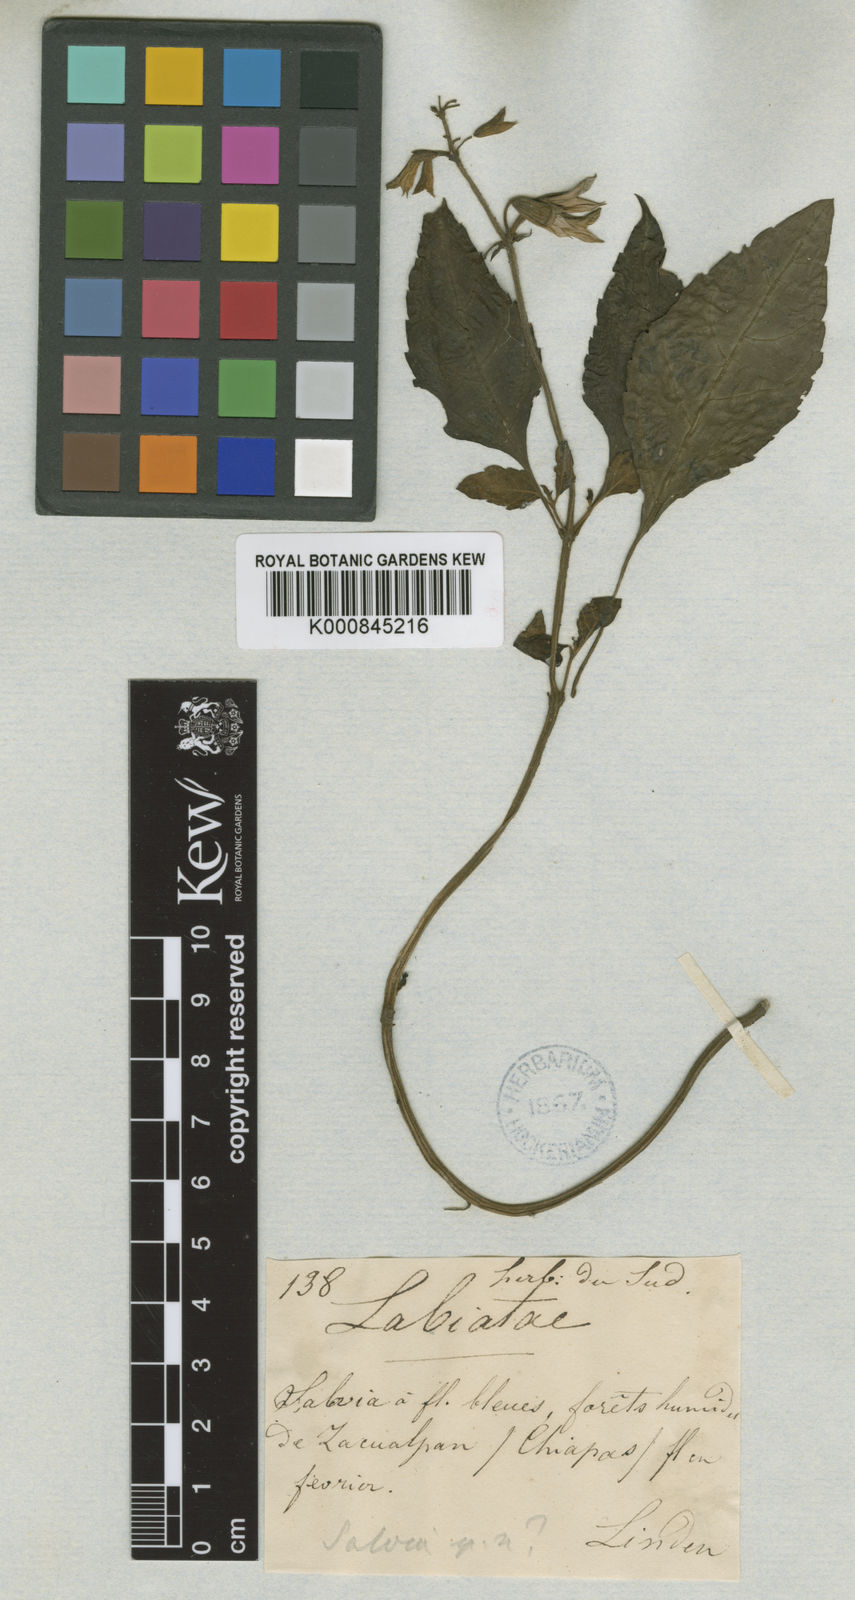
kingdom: Plantae
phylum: Tracheophyta
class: Magnoliopsida
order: Lamiales
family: Lamiaceae
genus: Salvia
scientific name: Salvia
